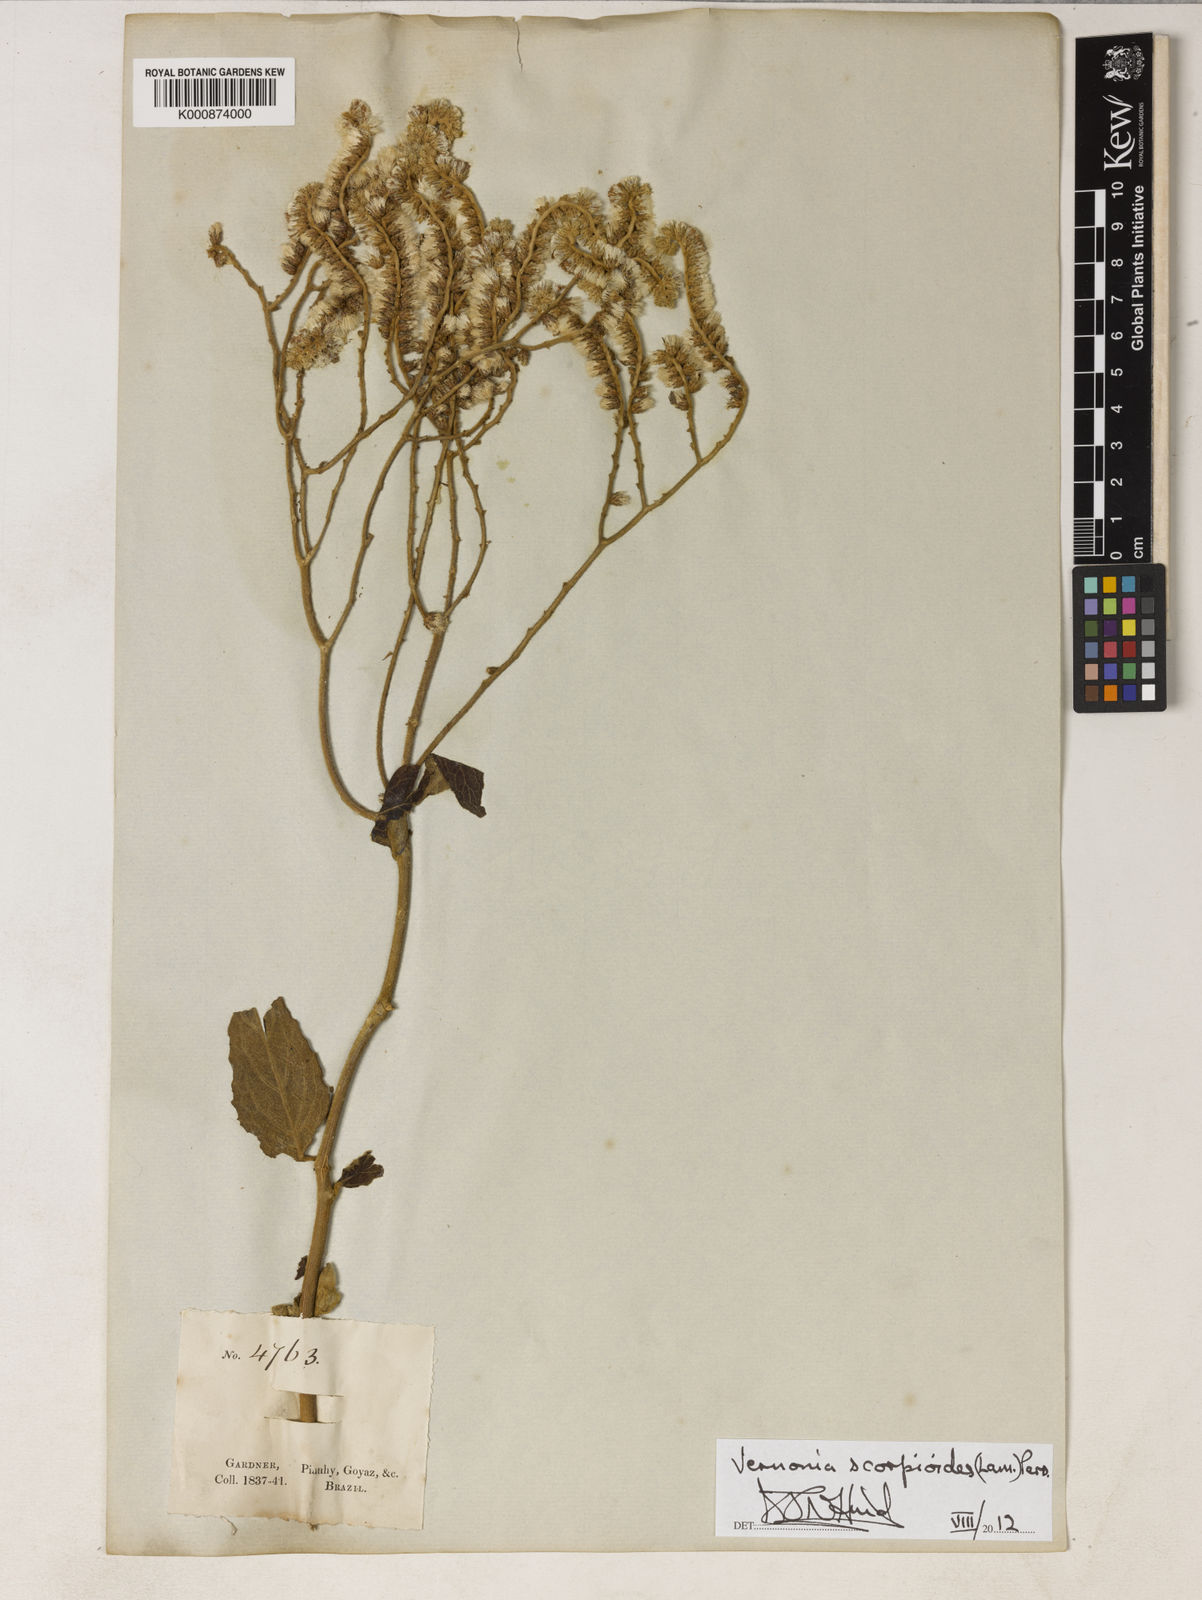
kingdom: Plantae
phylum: Tracheophyta
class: Magnoliopsida
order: Asterales
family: Asteraceae
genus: Cyrtocymura
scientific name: Cyrtocymura scorpioides
